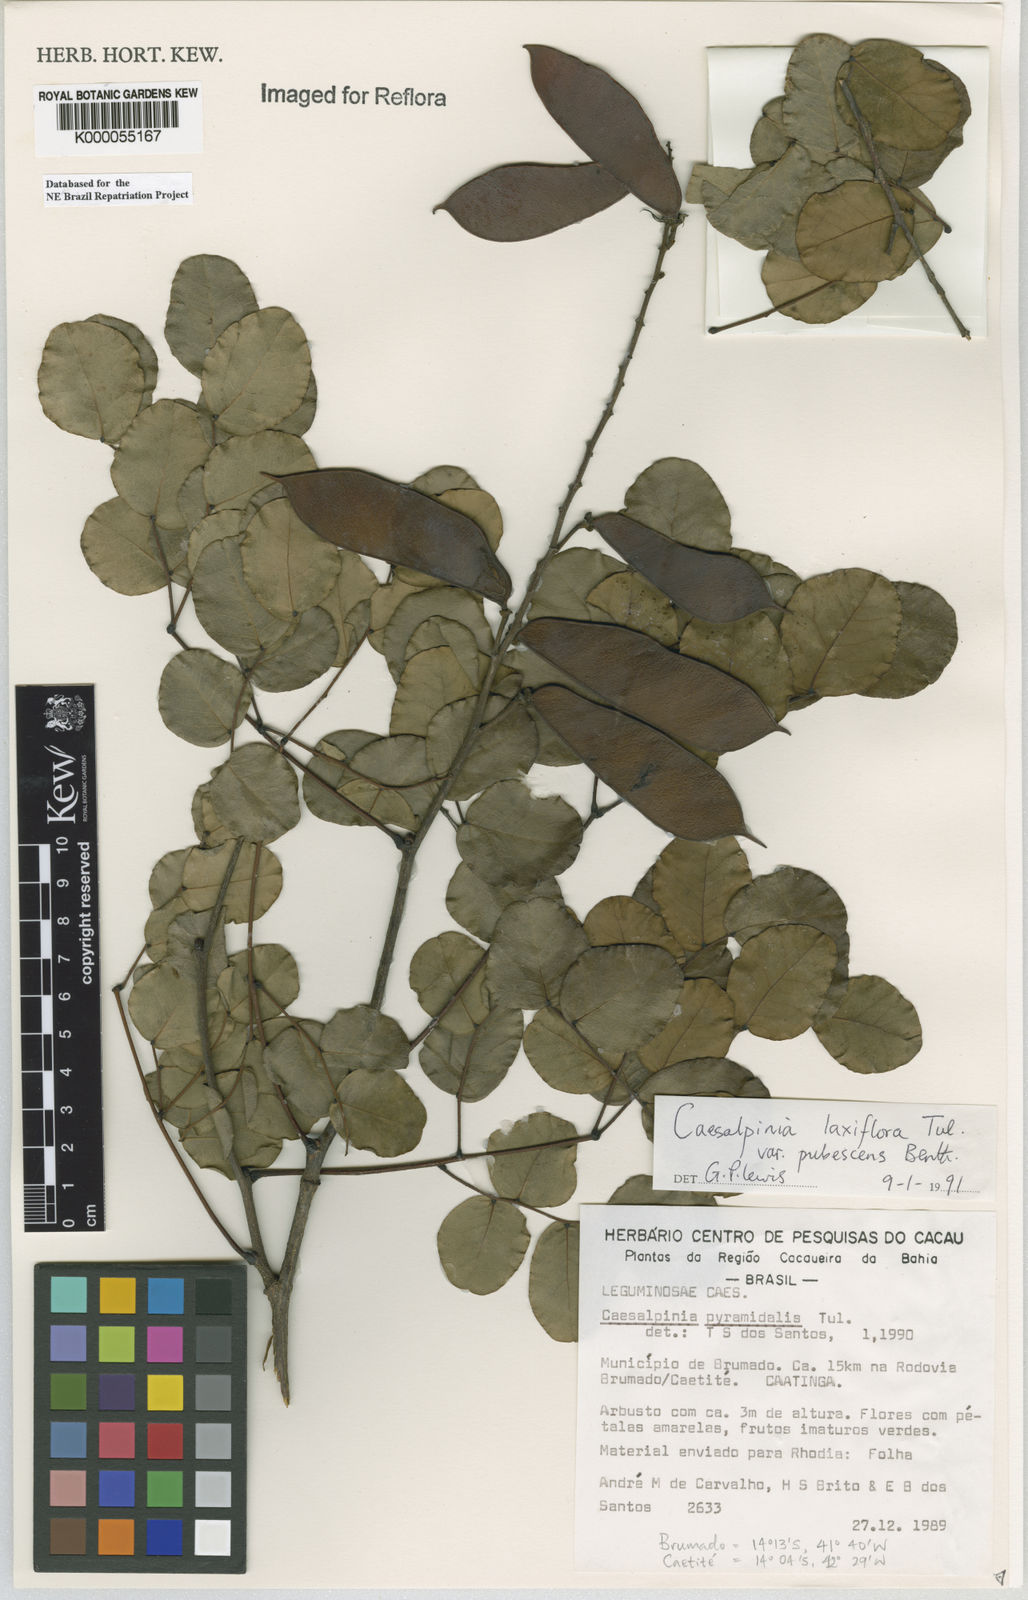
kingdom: Plantae
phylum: Tracheophyta
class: Magnoliopsida
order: Fabales
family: Fabaceae
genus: Cenostigma
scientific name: Cenostigma laxiflorum
